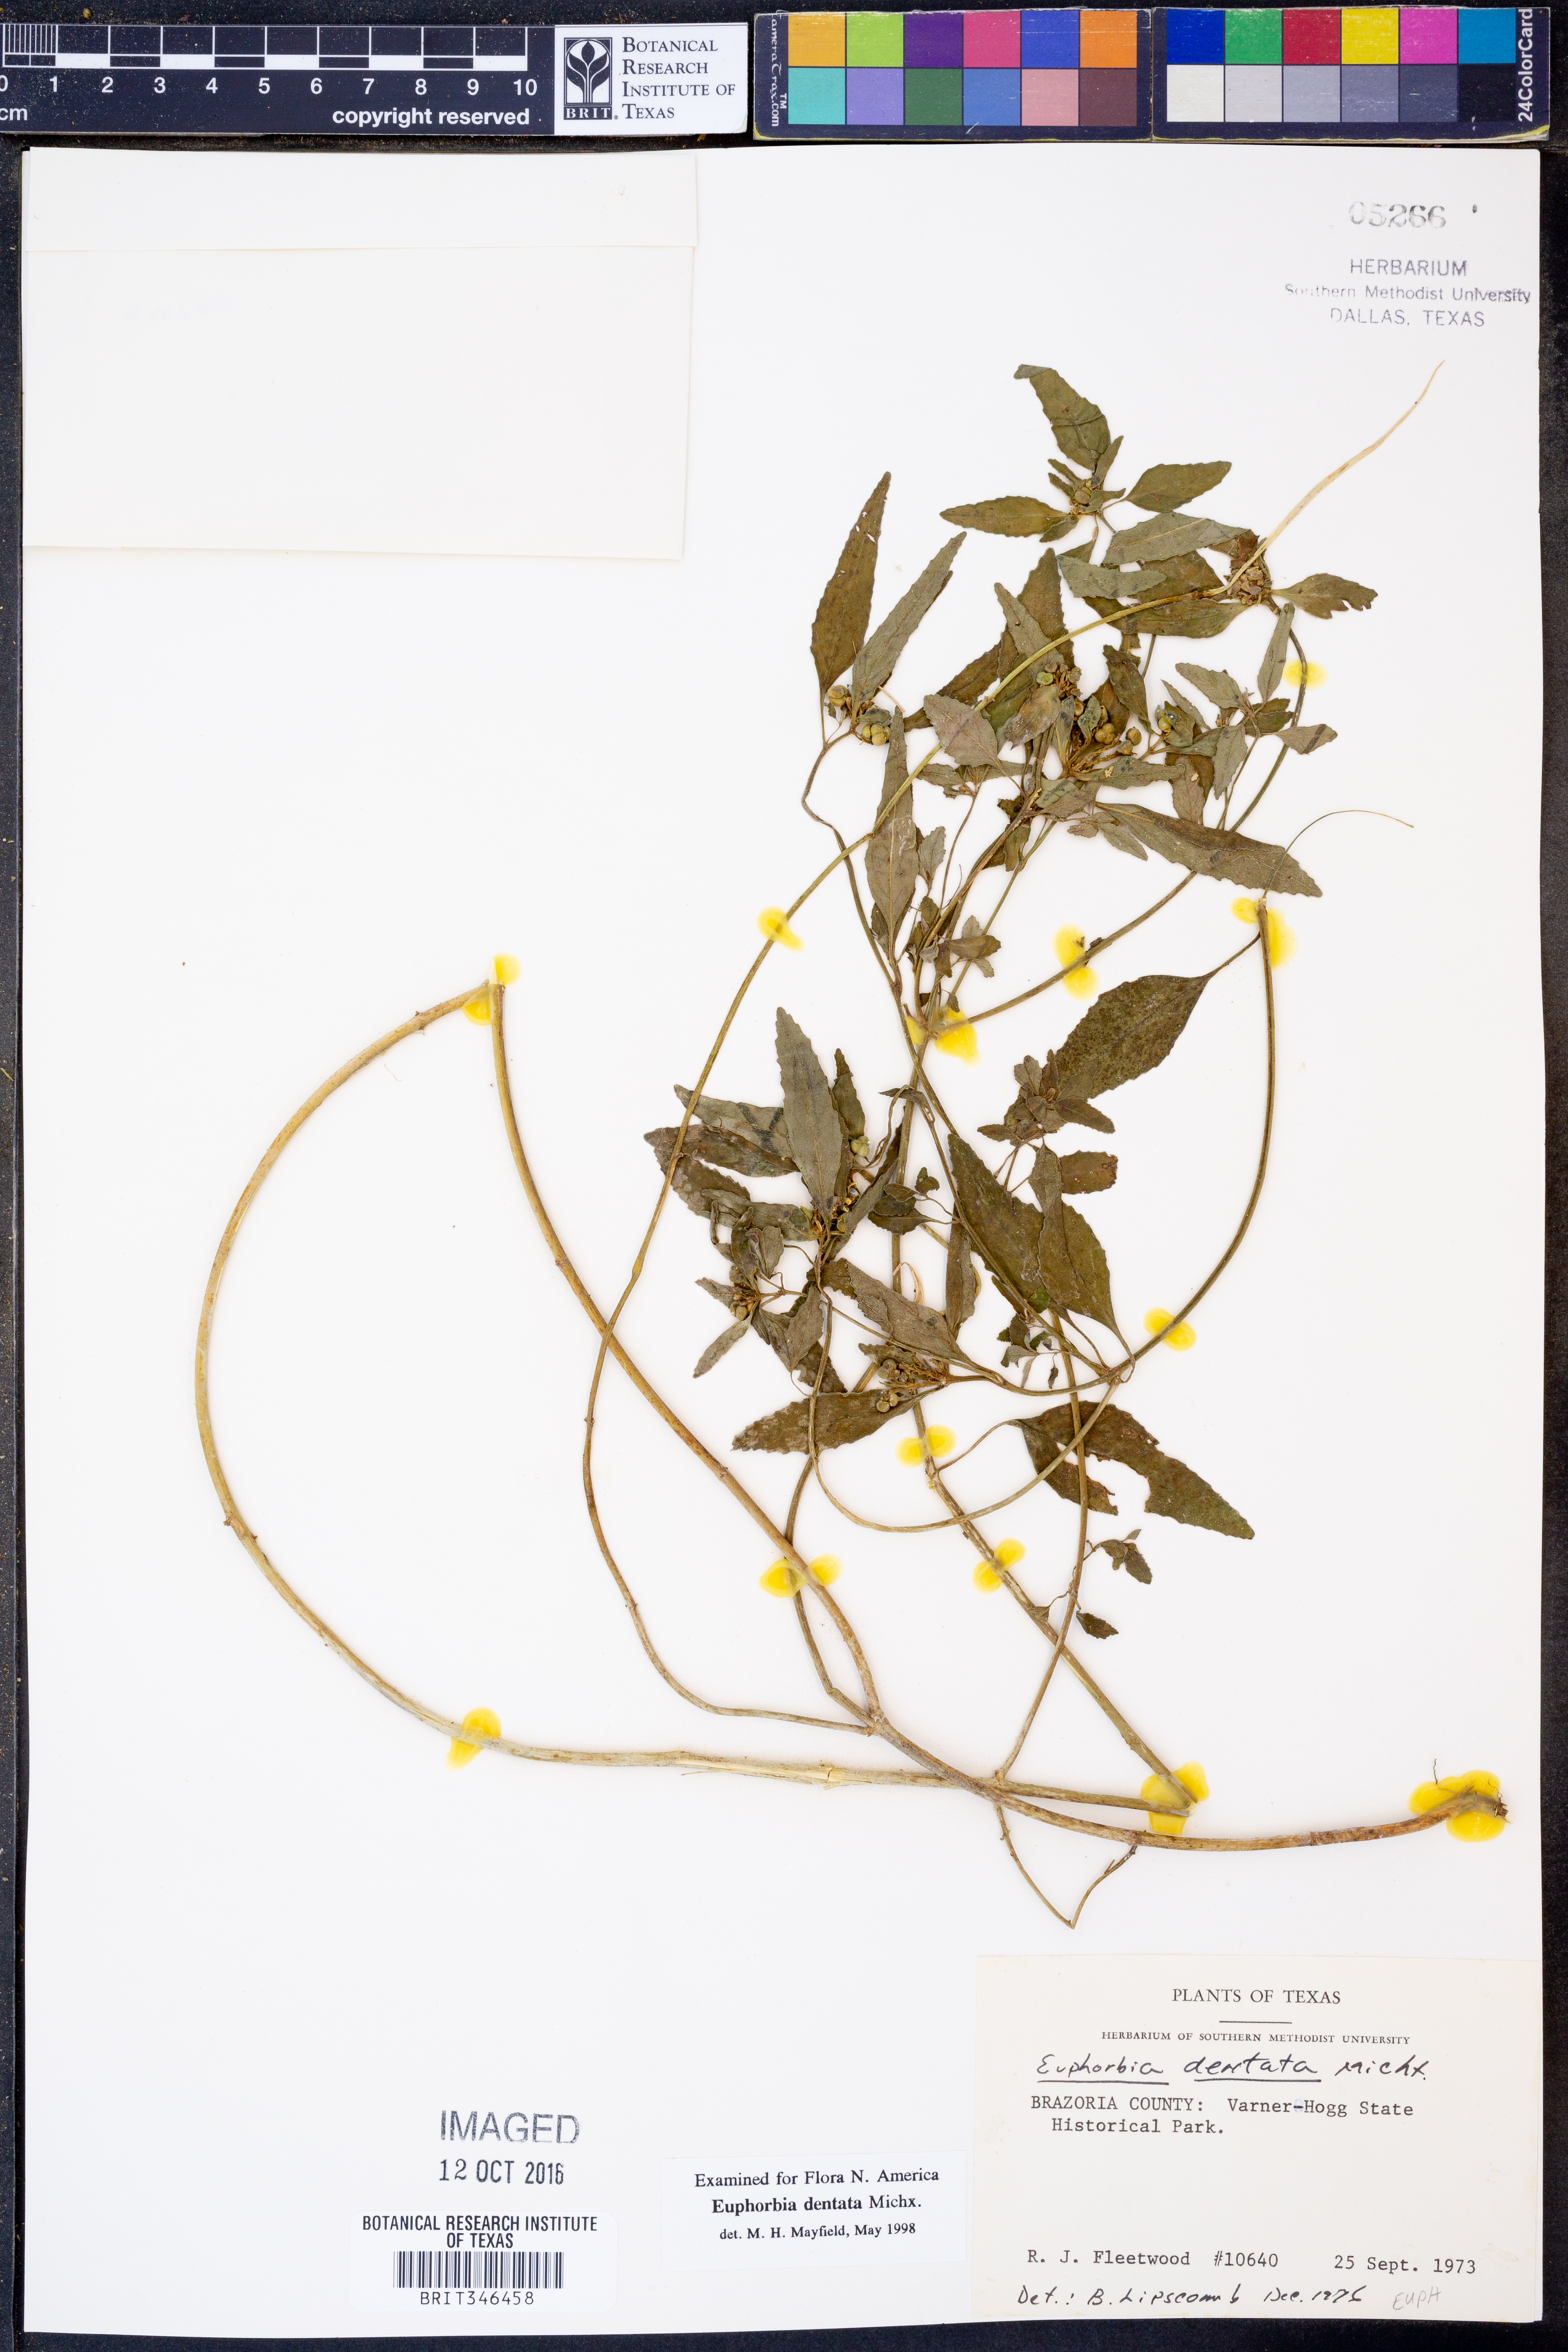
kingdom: Plantae
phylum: Tracheophyta
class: Magnoliopsida
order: Malpighiales
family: Euphorbiaceae
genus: Euphorbia
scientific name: Euphorbia dentata
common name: Dentate spurge
